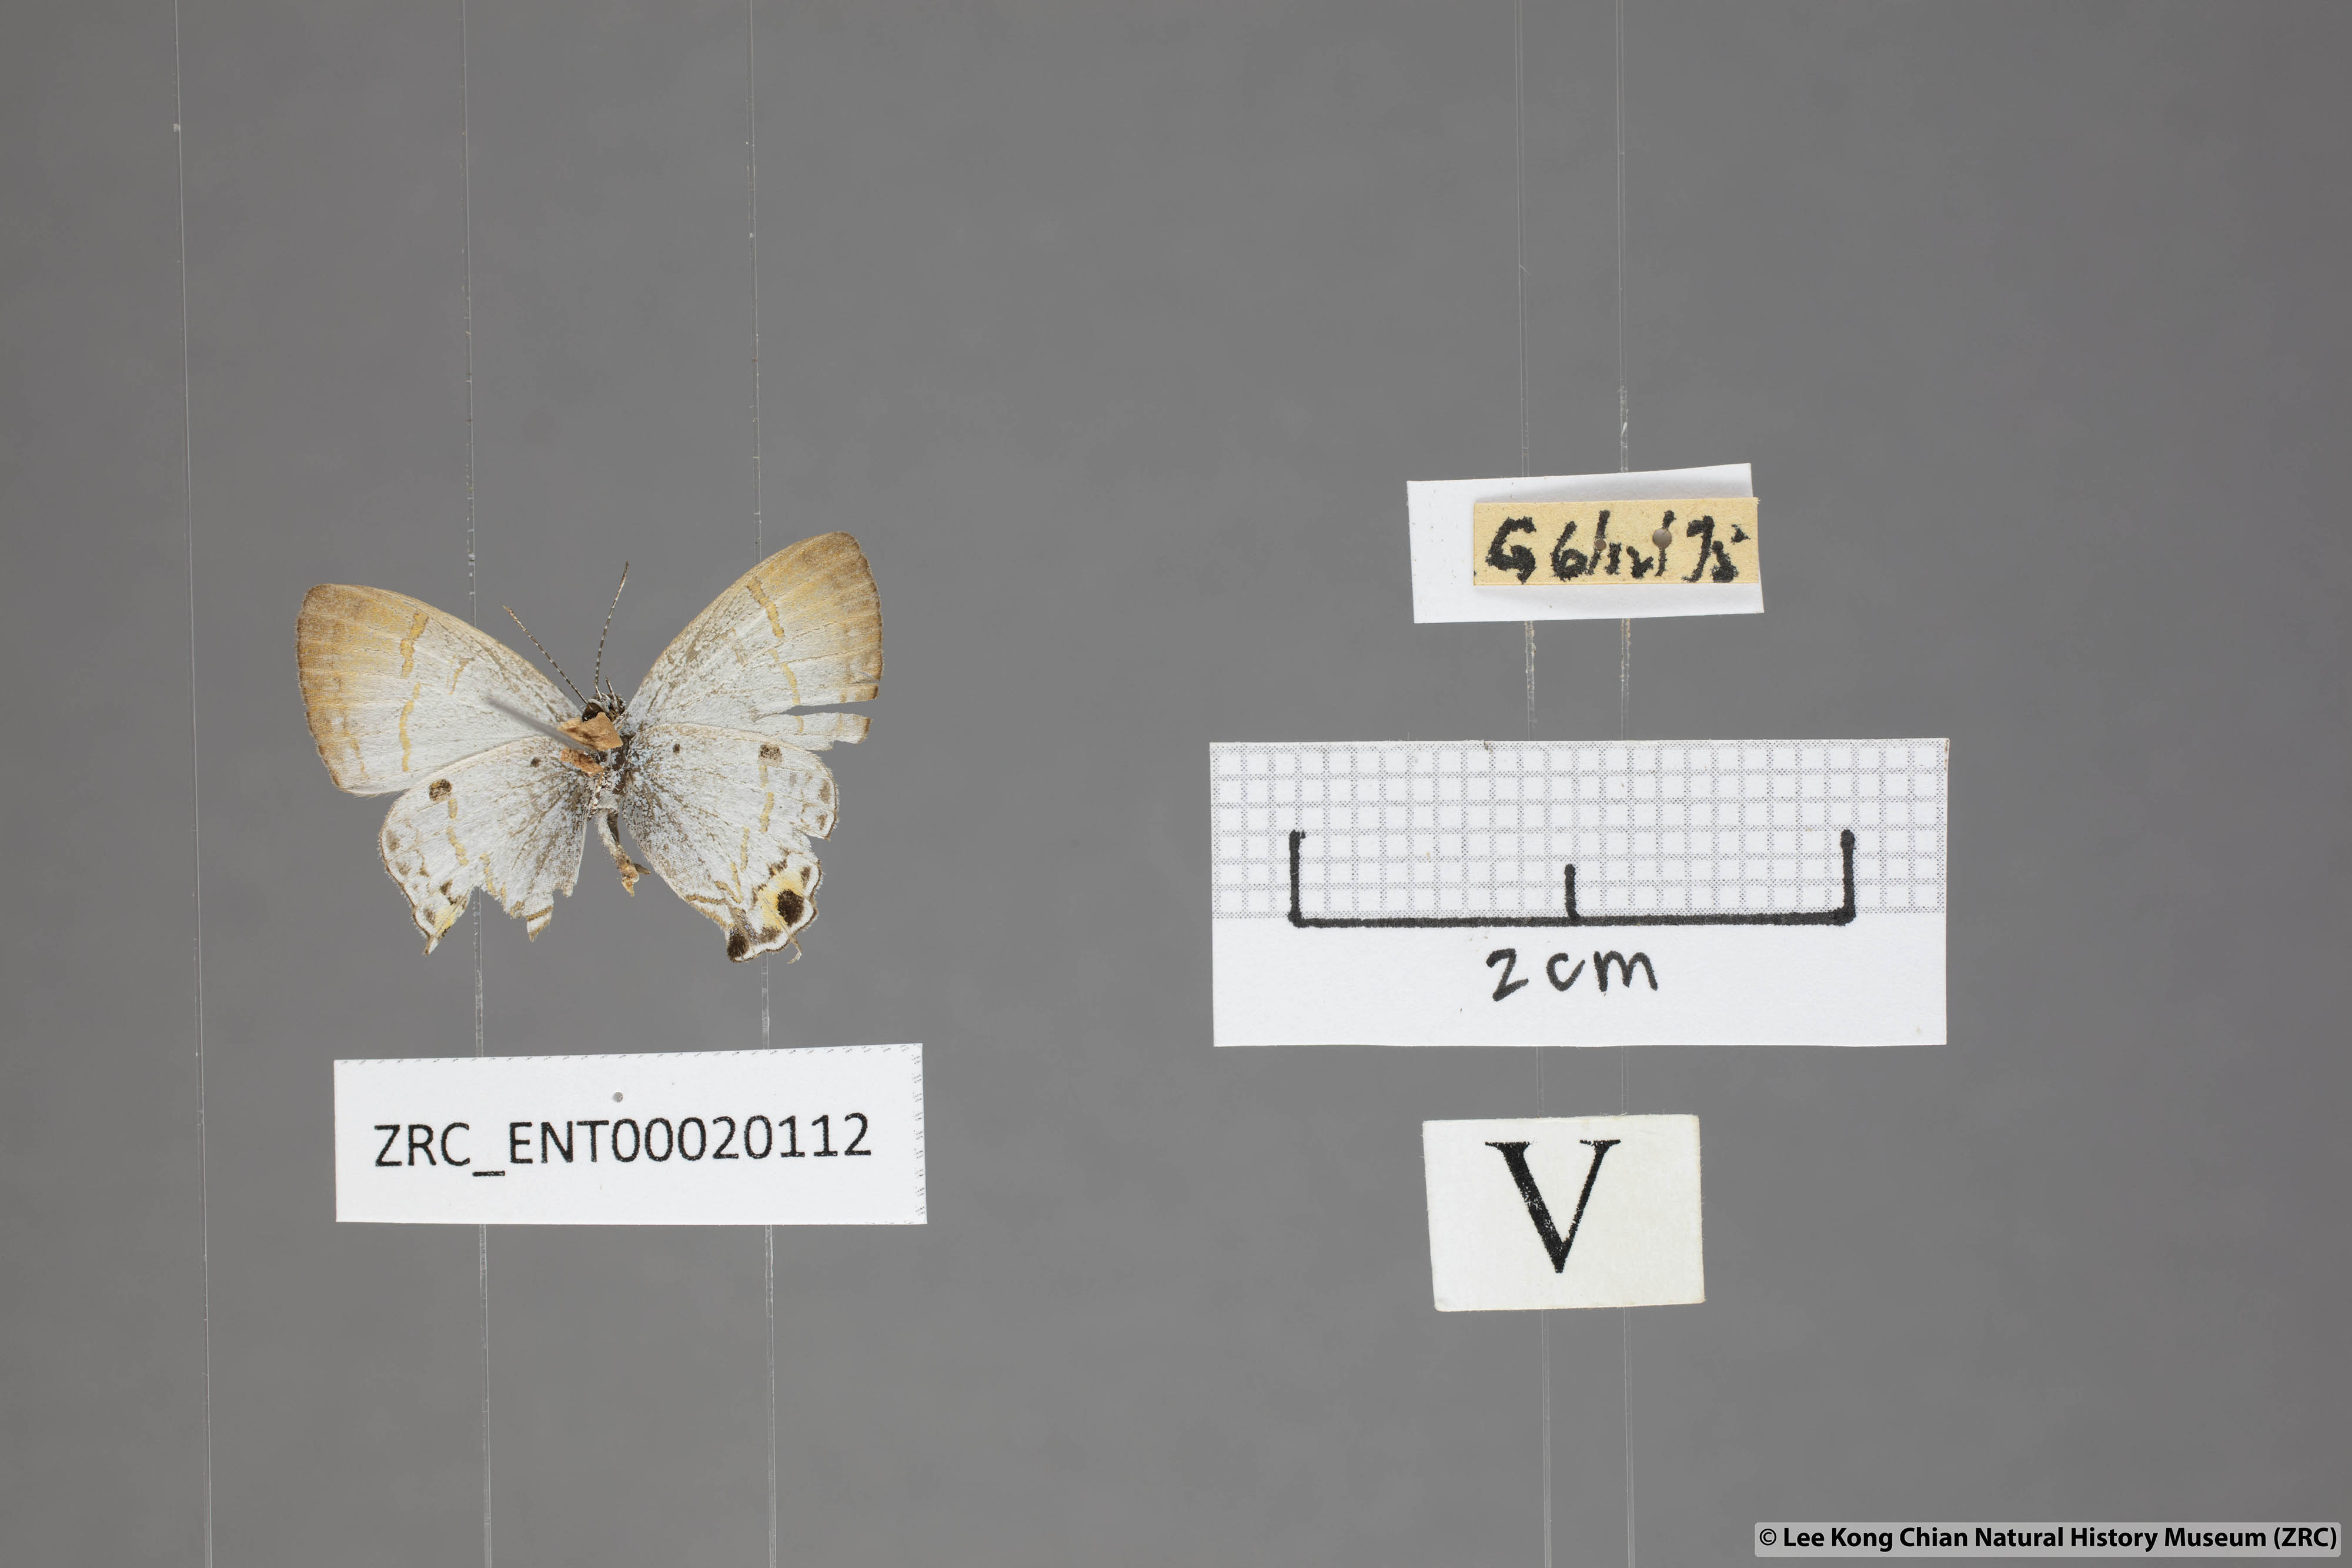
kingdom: Animalia
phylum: Arthropoda
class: Insecta
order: Lepidoptera
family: Lycaenidae
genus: Chliaria
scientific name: Chliaria othona
